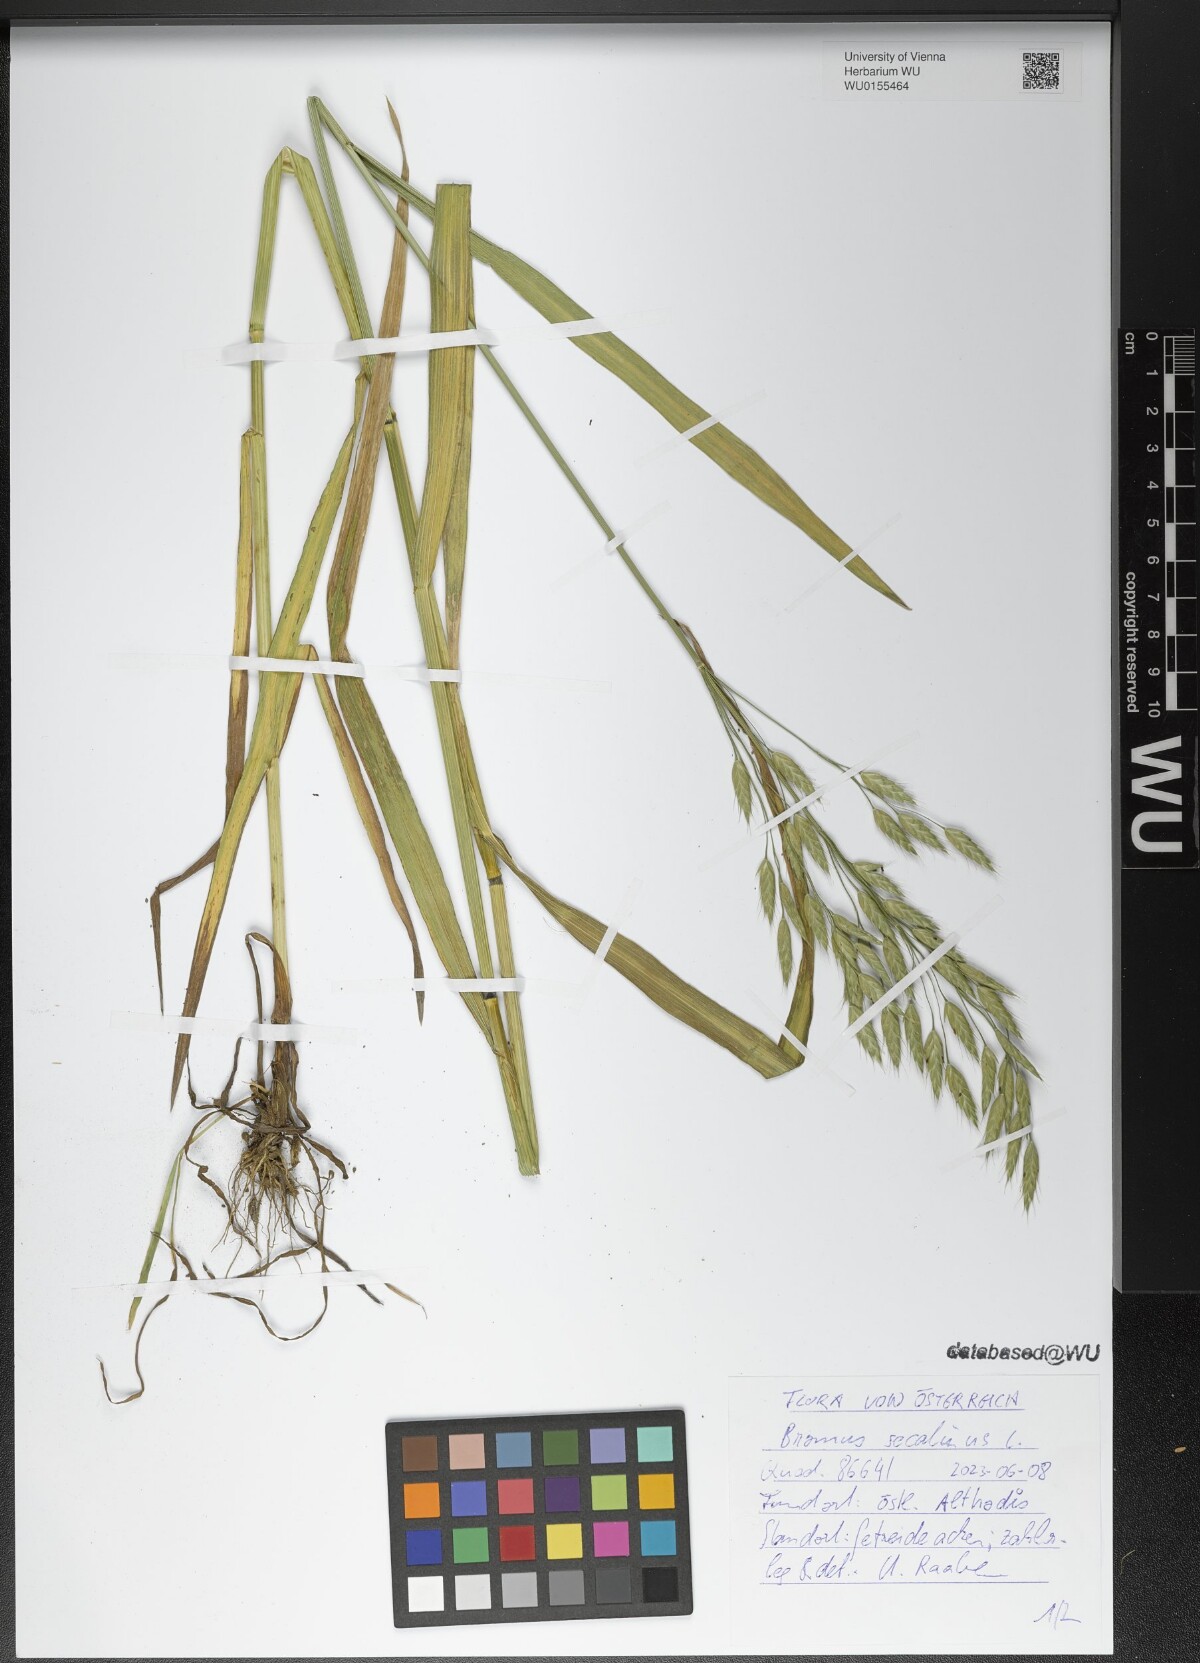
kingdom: Plantae
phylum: Tracheophyta
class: Liliopsida
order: Poales
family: Poaceae
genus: Bromus
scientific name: Bromus secalinus
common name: Rye brome
